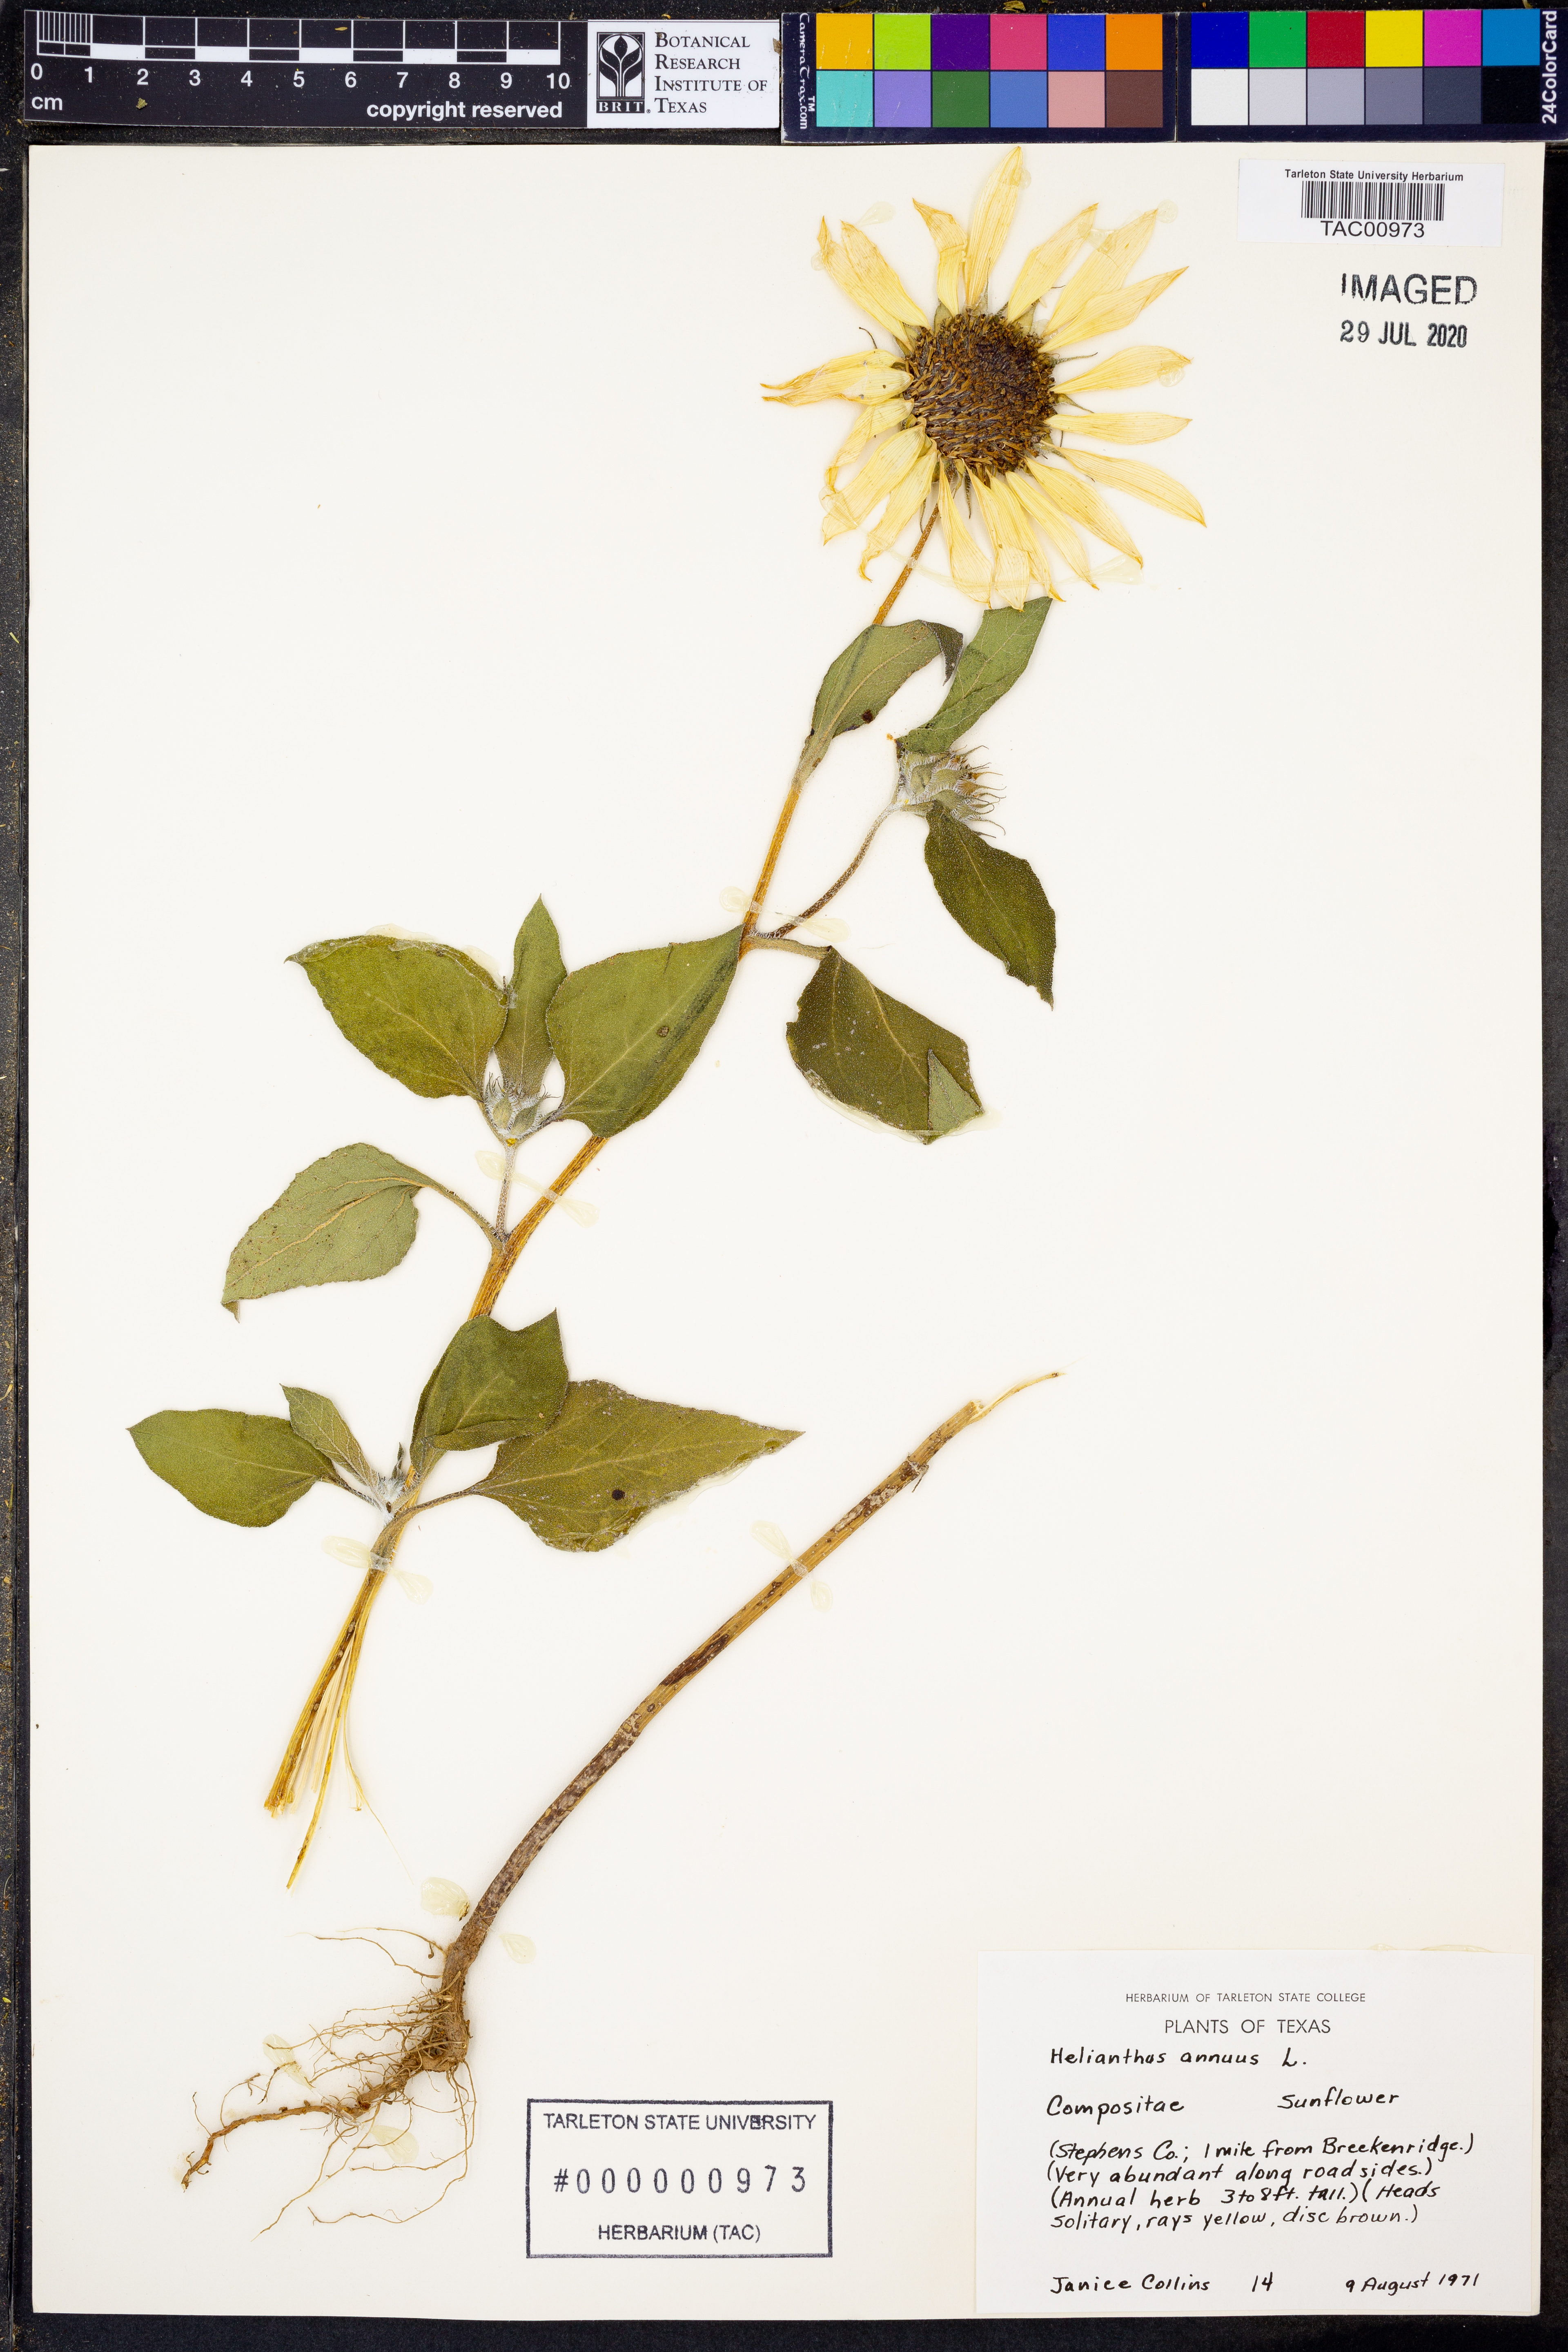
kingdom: Plantae
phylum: Tracheophyta
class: Magnoliopsida
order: Asterales
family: Asteraceae
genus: Helianthus
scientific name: Helianthus annuus
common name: Sunflower
